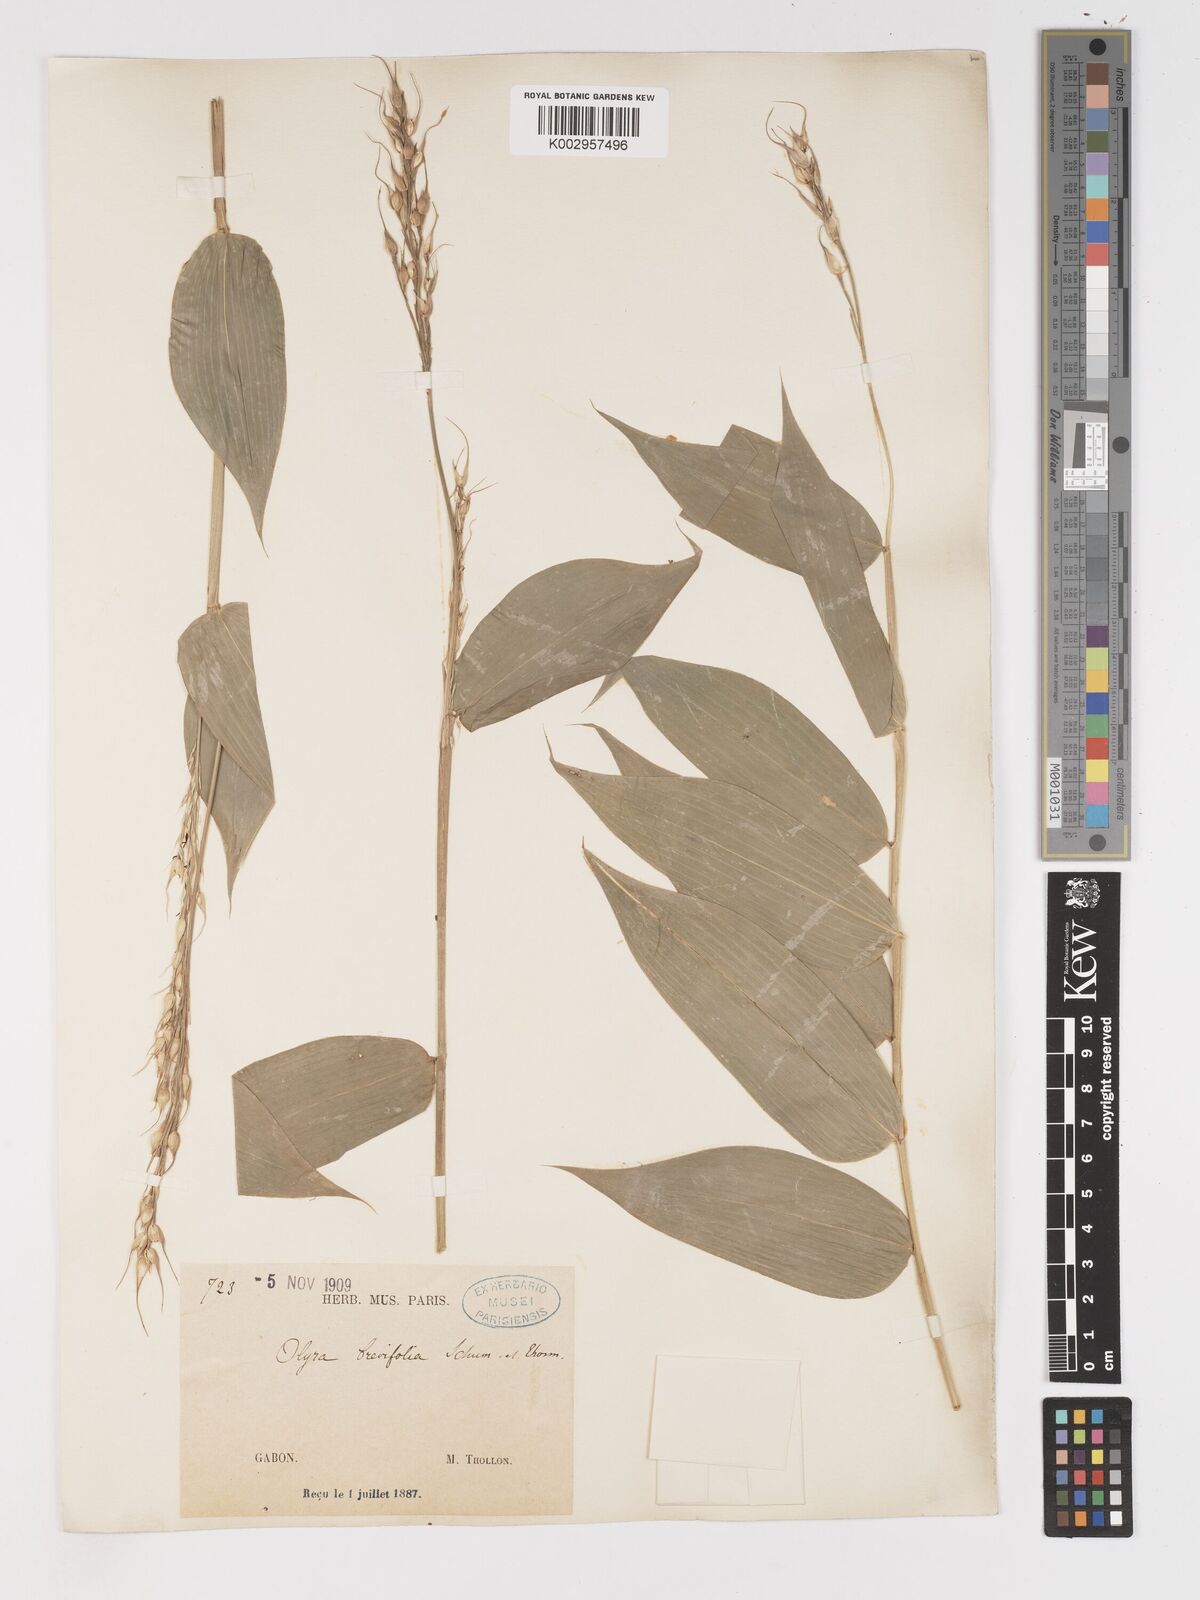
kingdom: Plantae
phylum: Tracheophyta
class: Liliopsida
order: Poales
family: Poaceae
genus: Olyra
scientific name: Olyra latifolia
